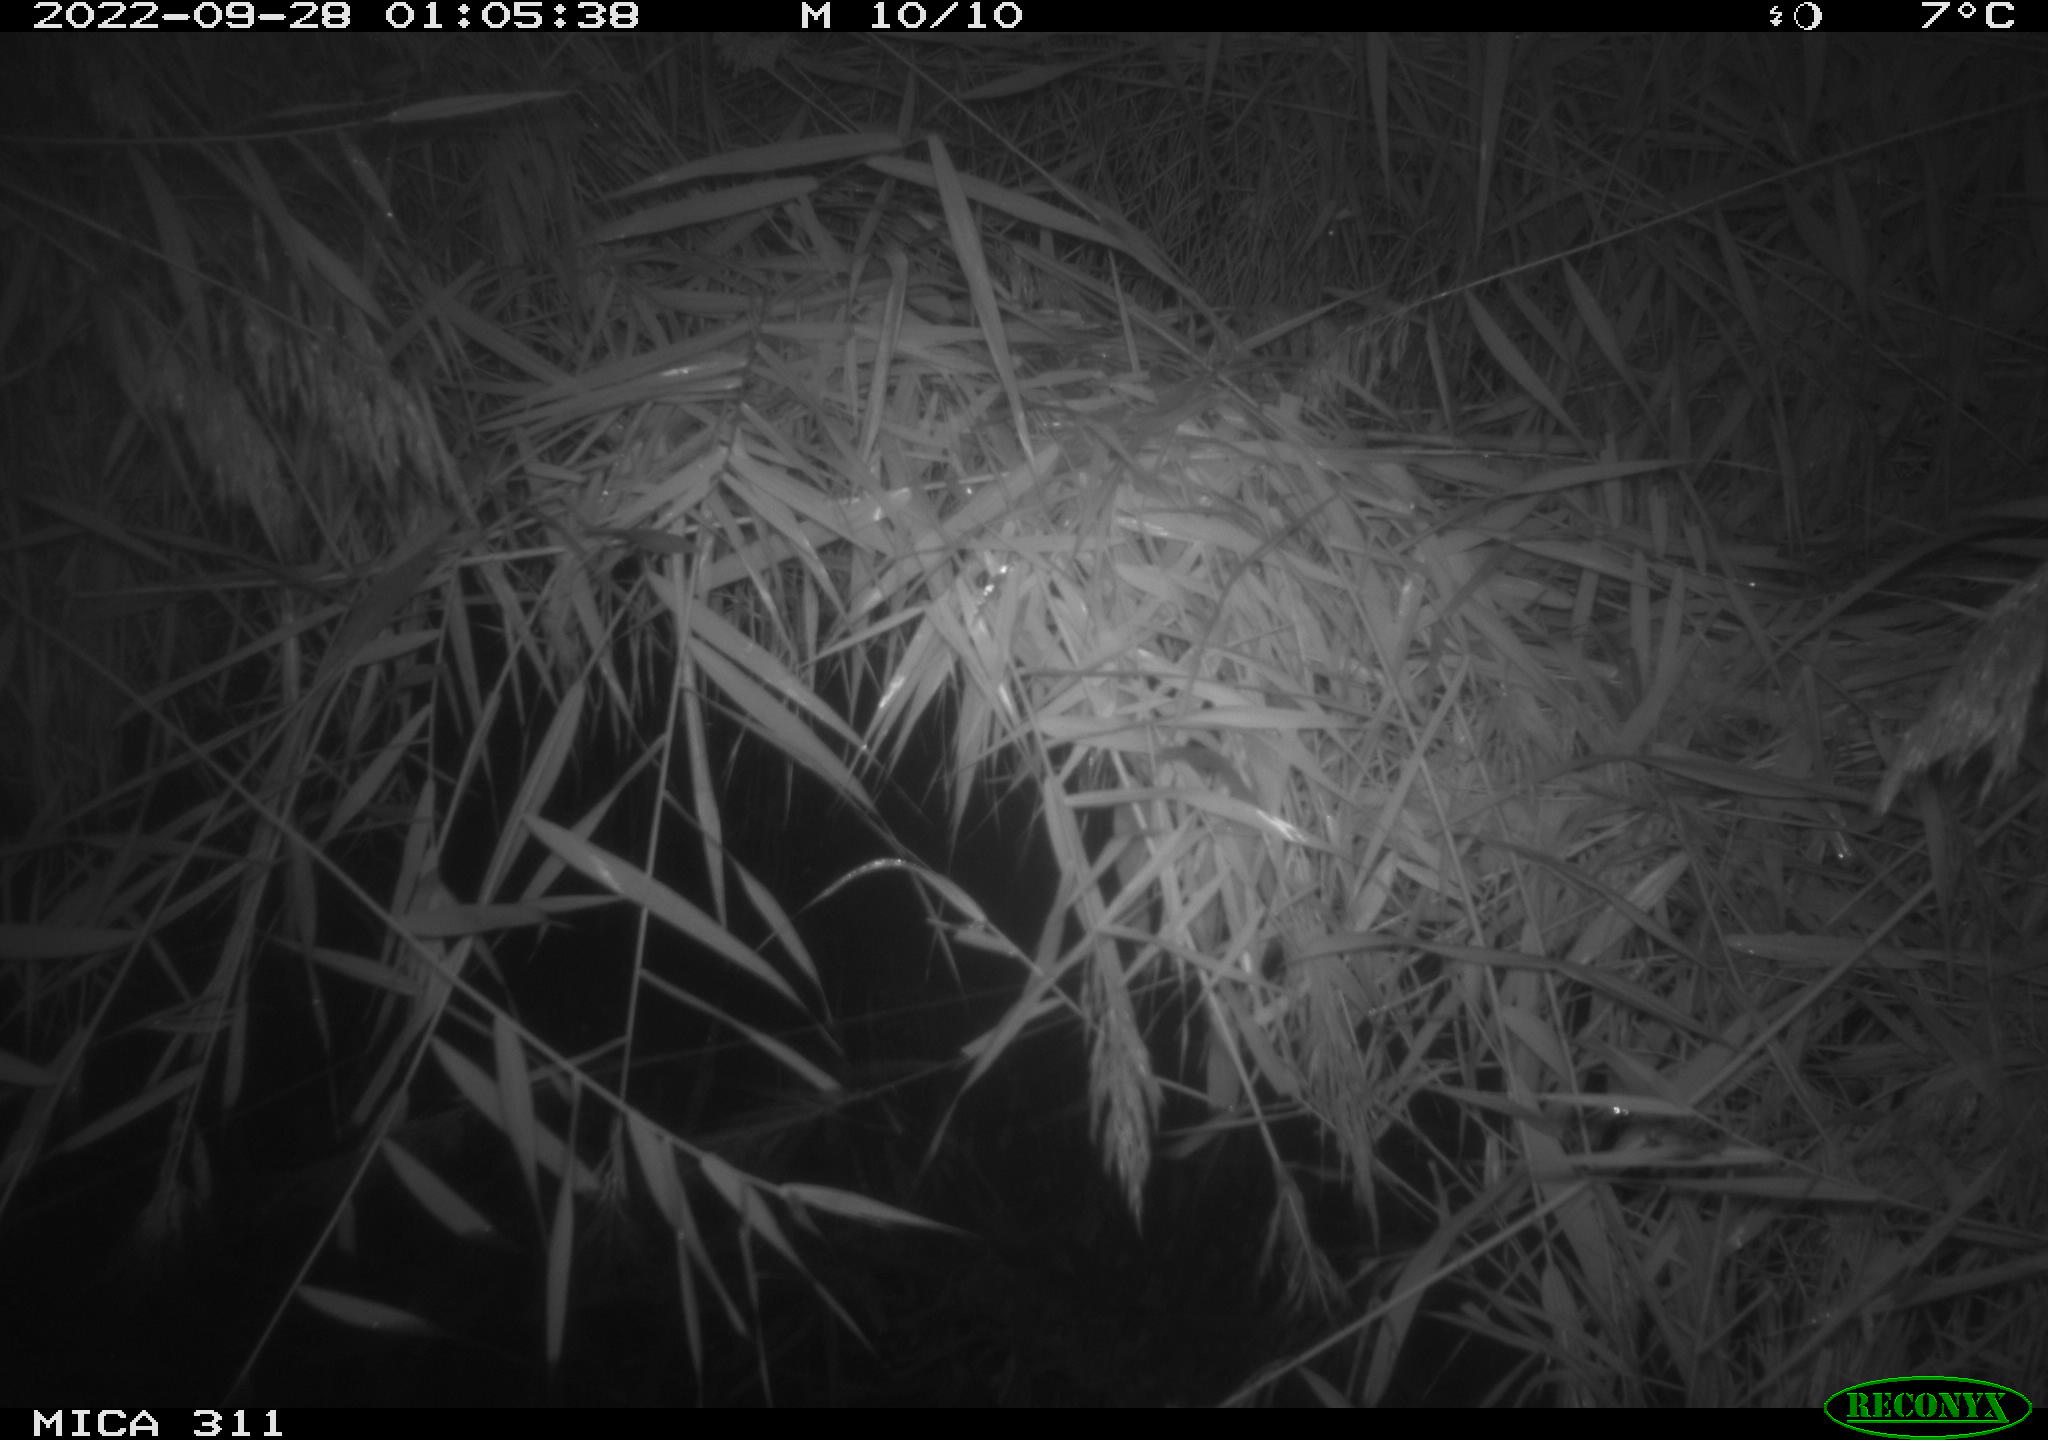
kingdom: Animalia
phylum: Chordata
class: Mammalia
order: Rodentia
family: Muridae
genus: Rattus
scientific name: Rattus norvegicus
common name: Brown rat
